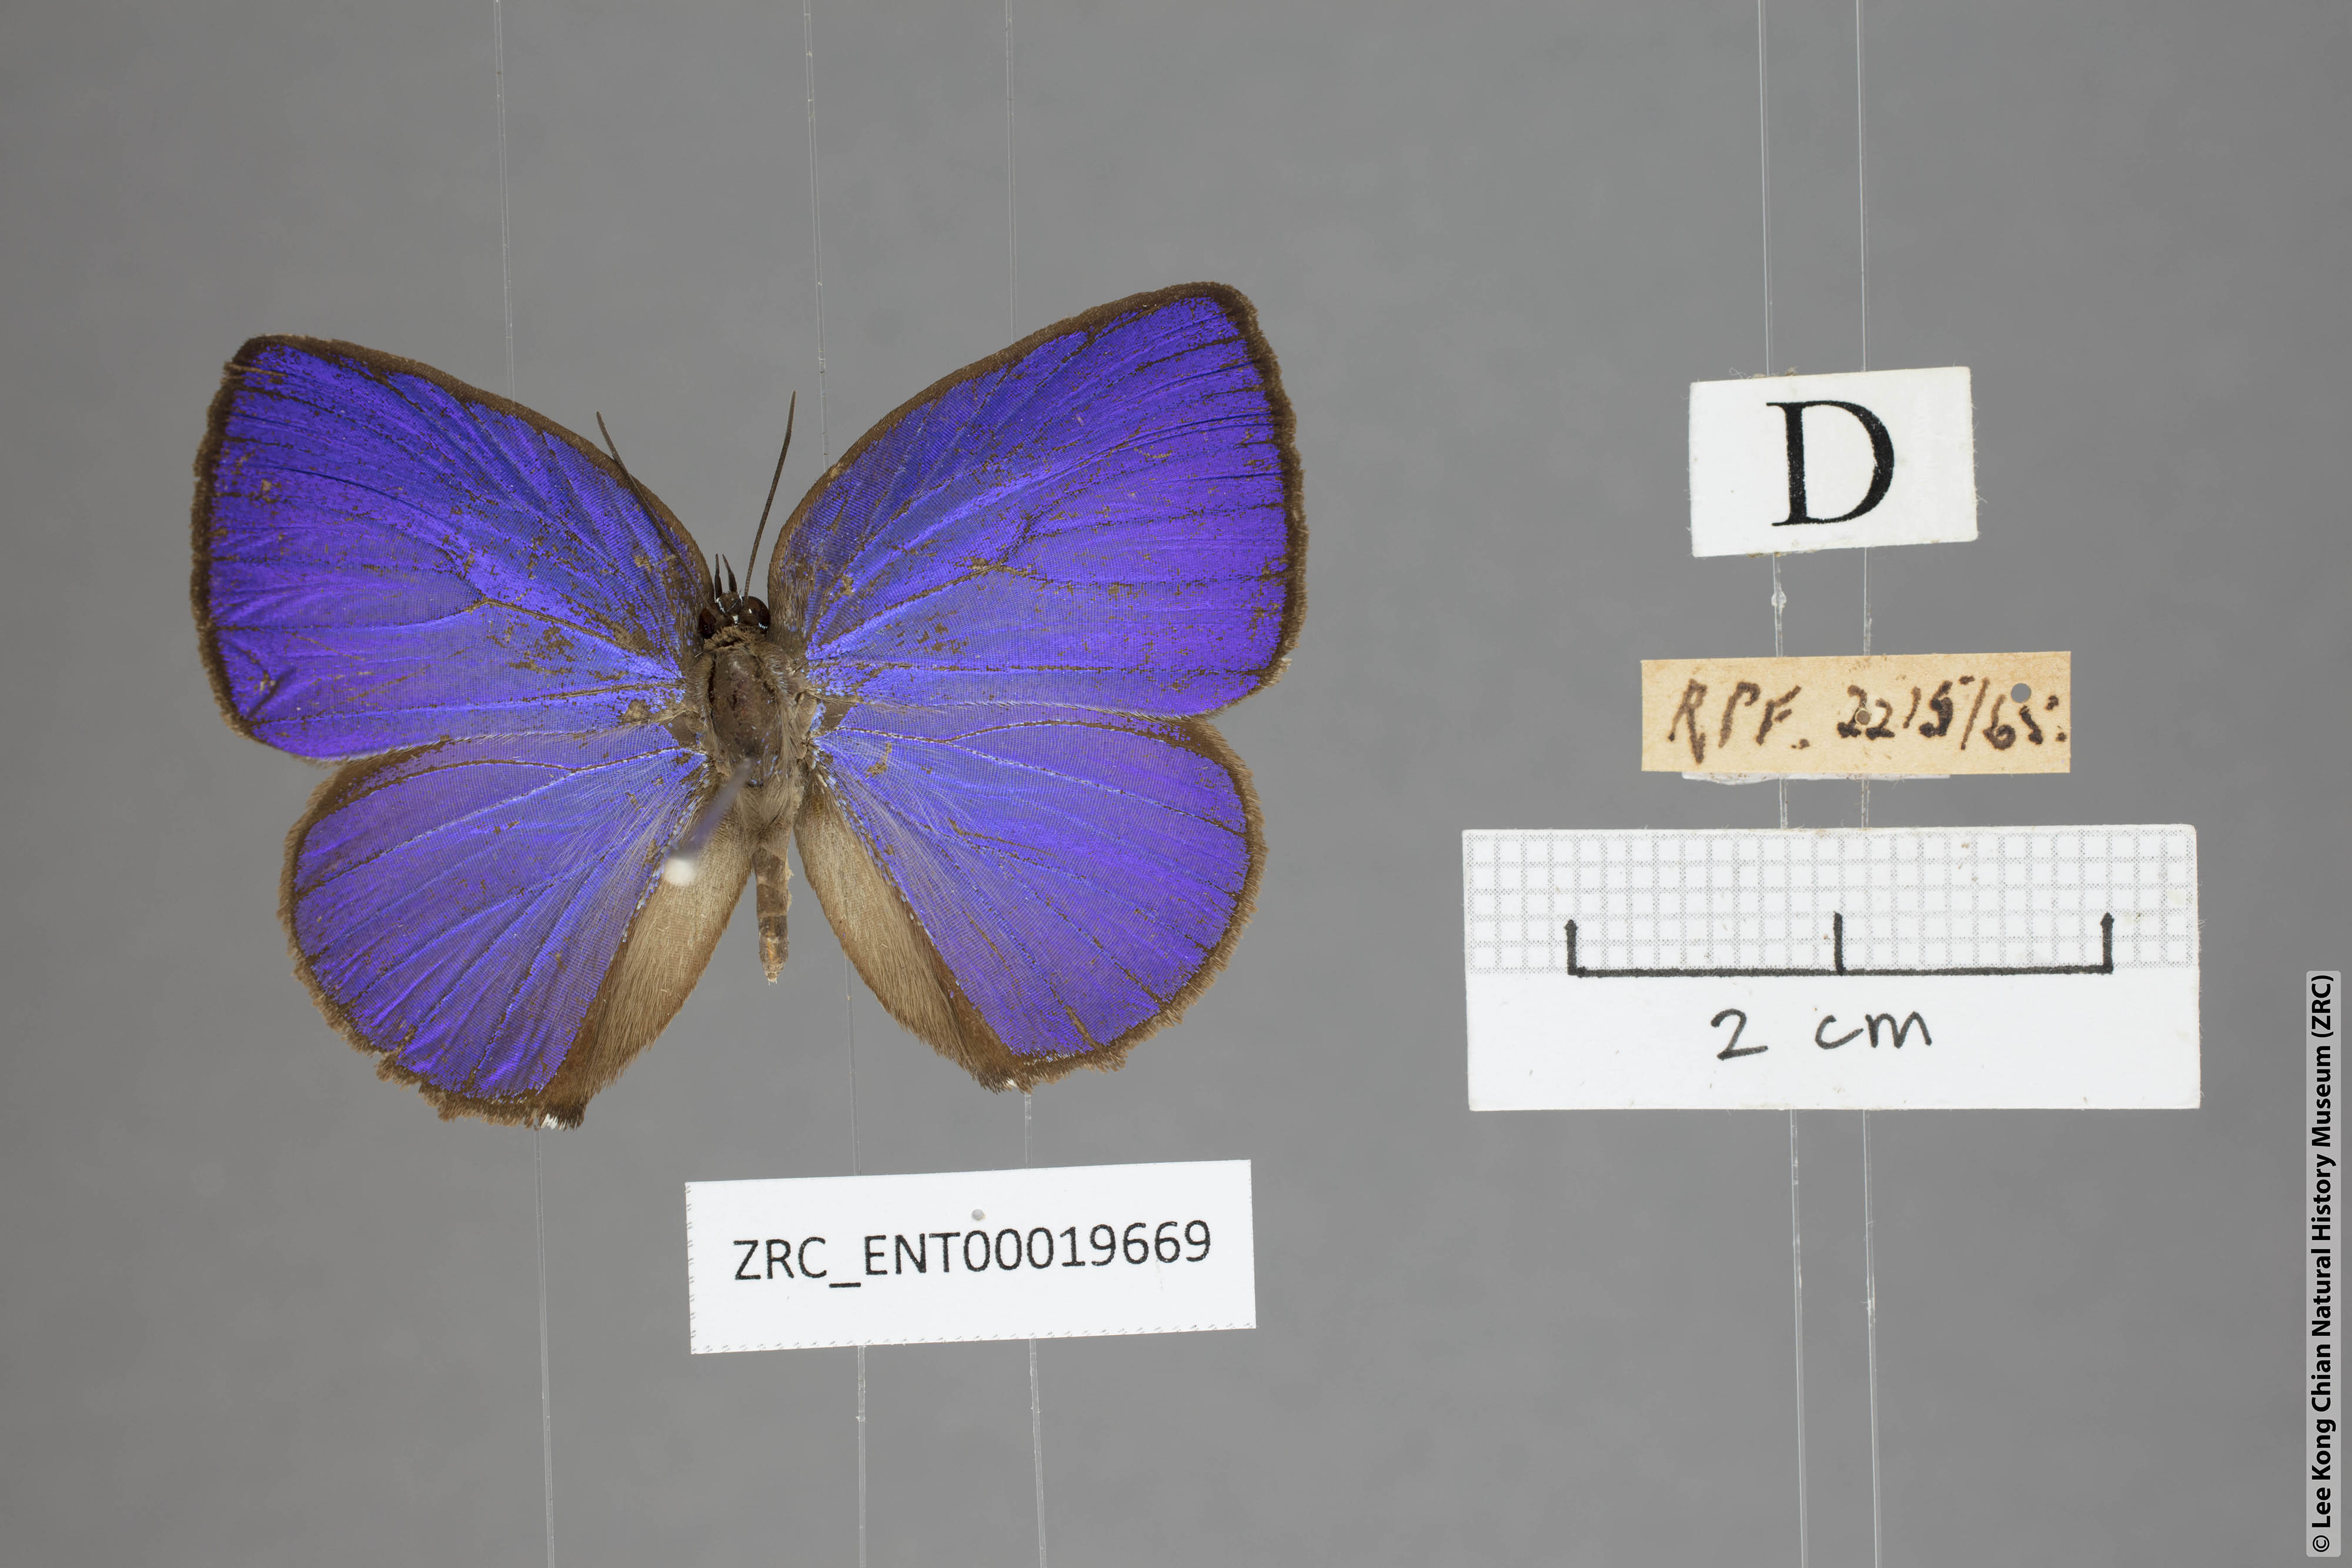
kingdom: Animalia
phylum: Arthropoda
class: Insecta
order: Lepidoptera
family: Lycaenidae
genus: Arhopala
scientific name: Arhopala moolaina
